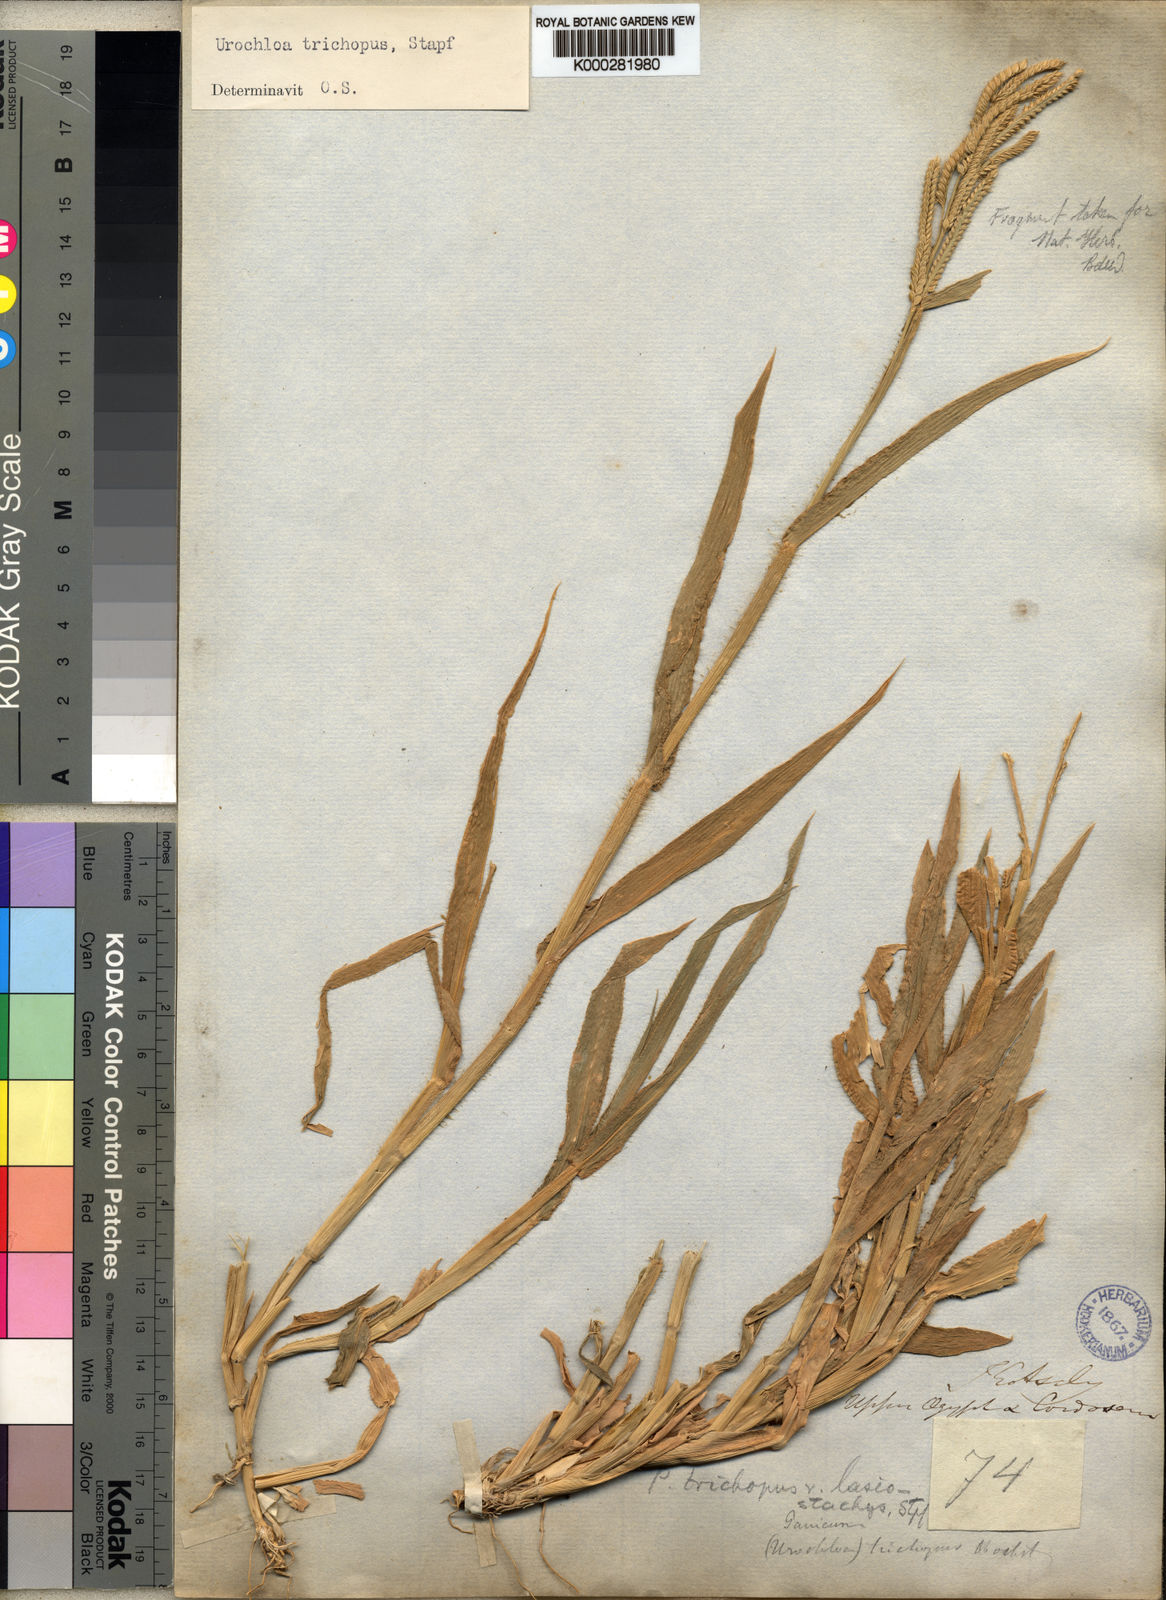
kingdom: Plantae
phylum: Tracheophyta
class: Liliopsida
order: Poales
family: Poaceae
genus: Urochloa
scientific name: Urochloa trichopus
